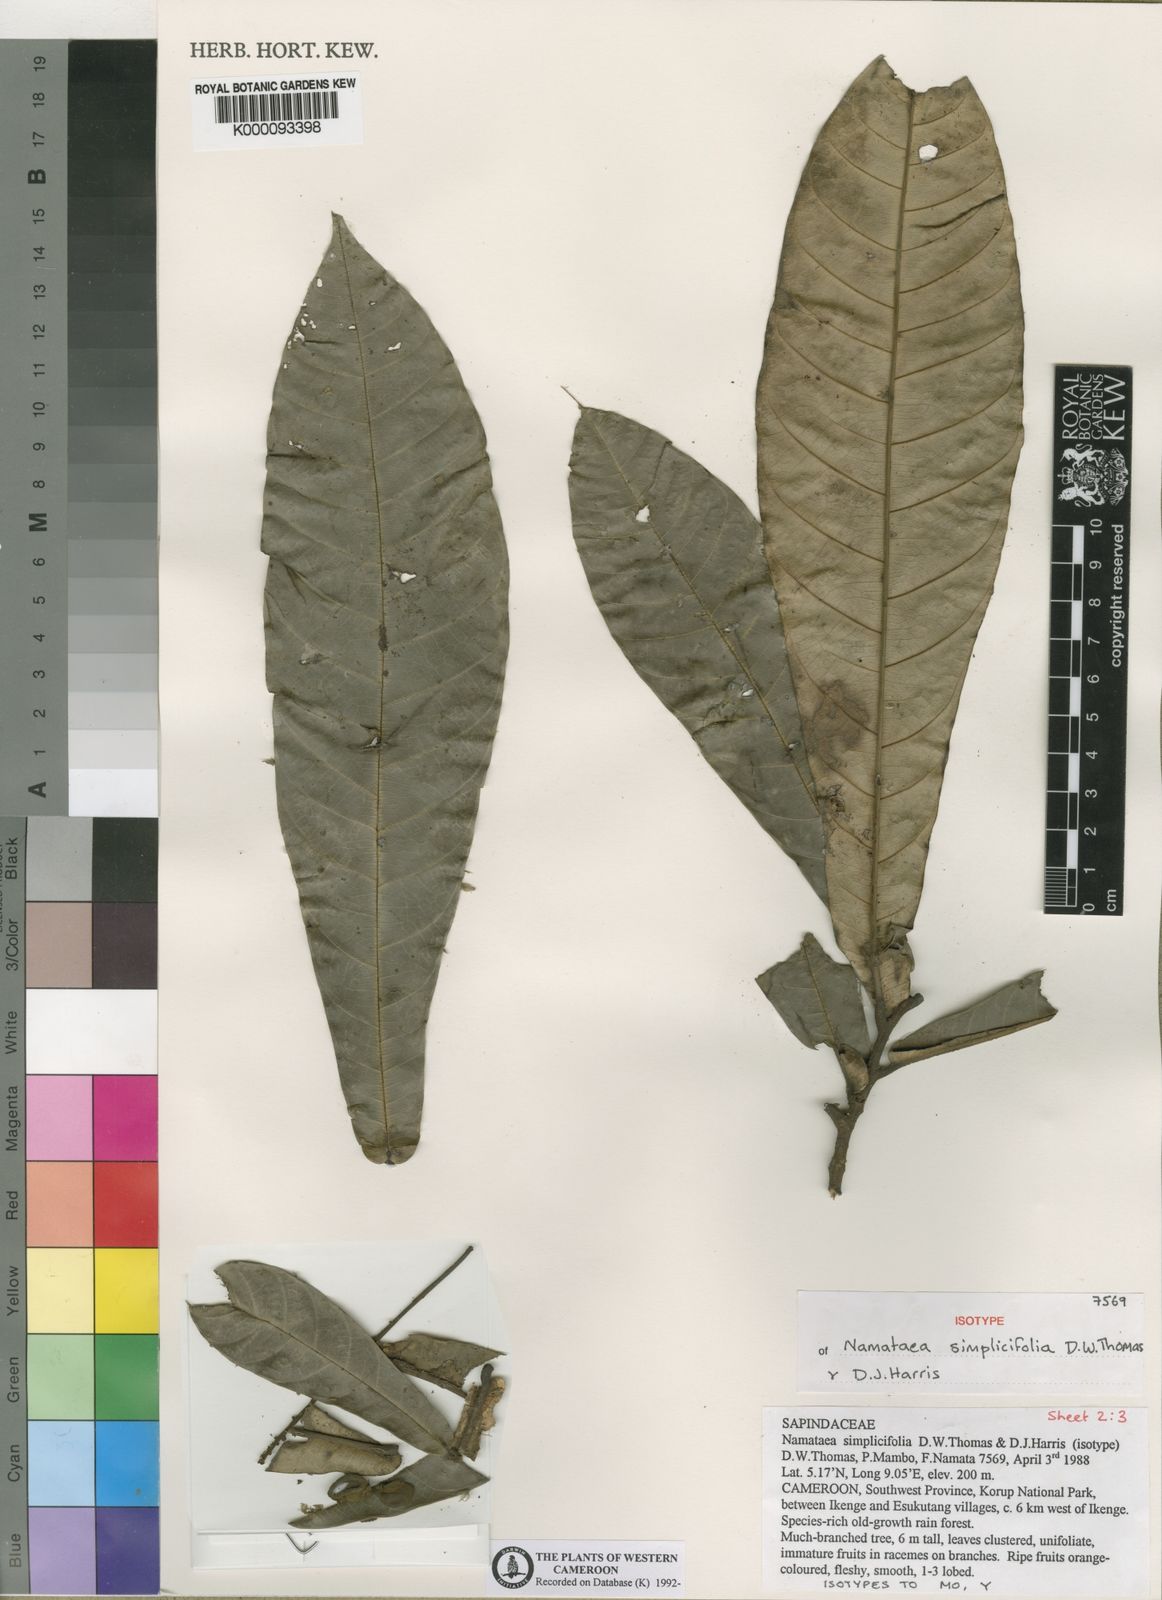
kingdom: Plantae
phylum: Tracheophyta
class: Magnoliopsida
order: Sapindales
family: Sapindaceae
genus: Namataea
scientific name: Namataea simplicifolia
